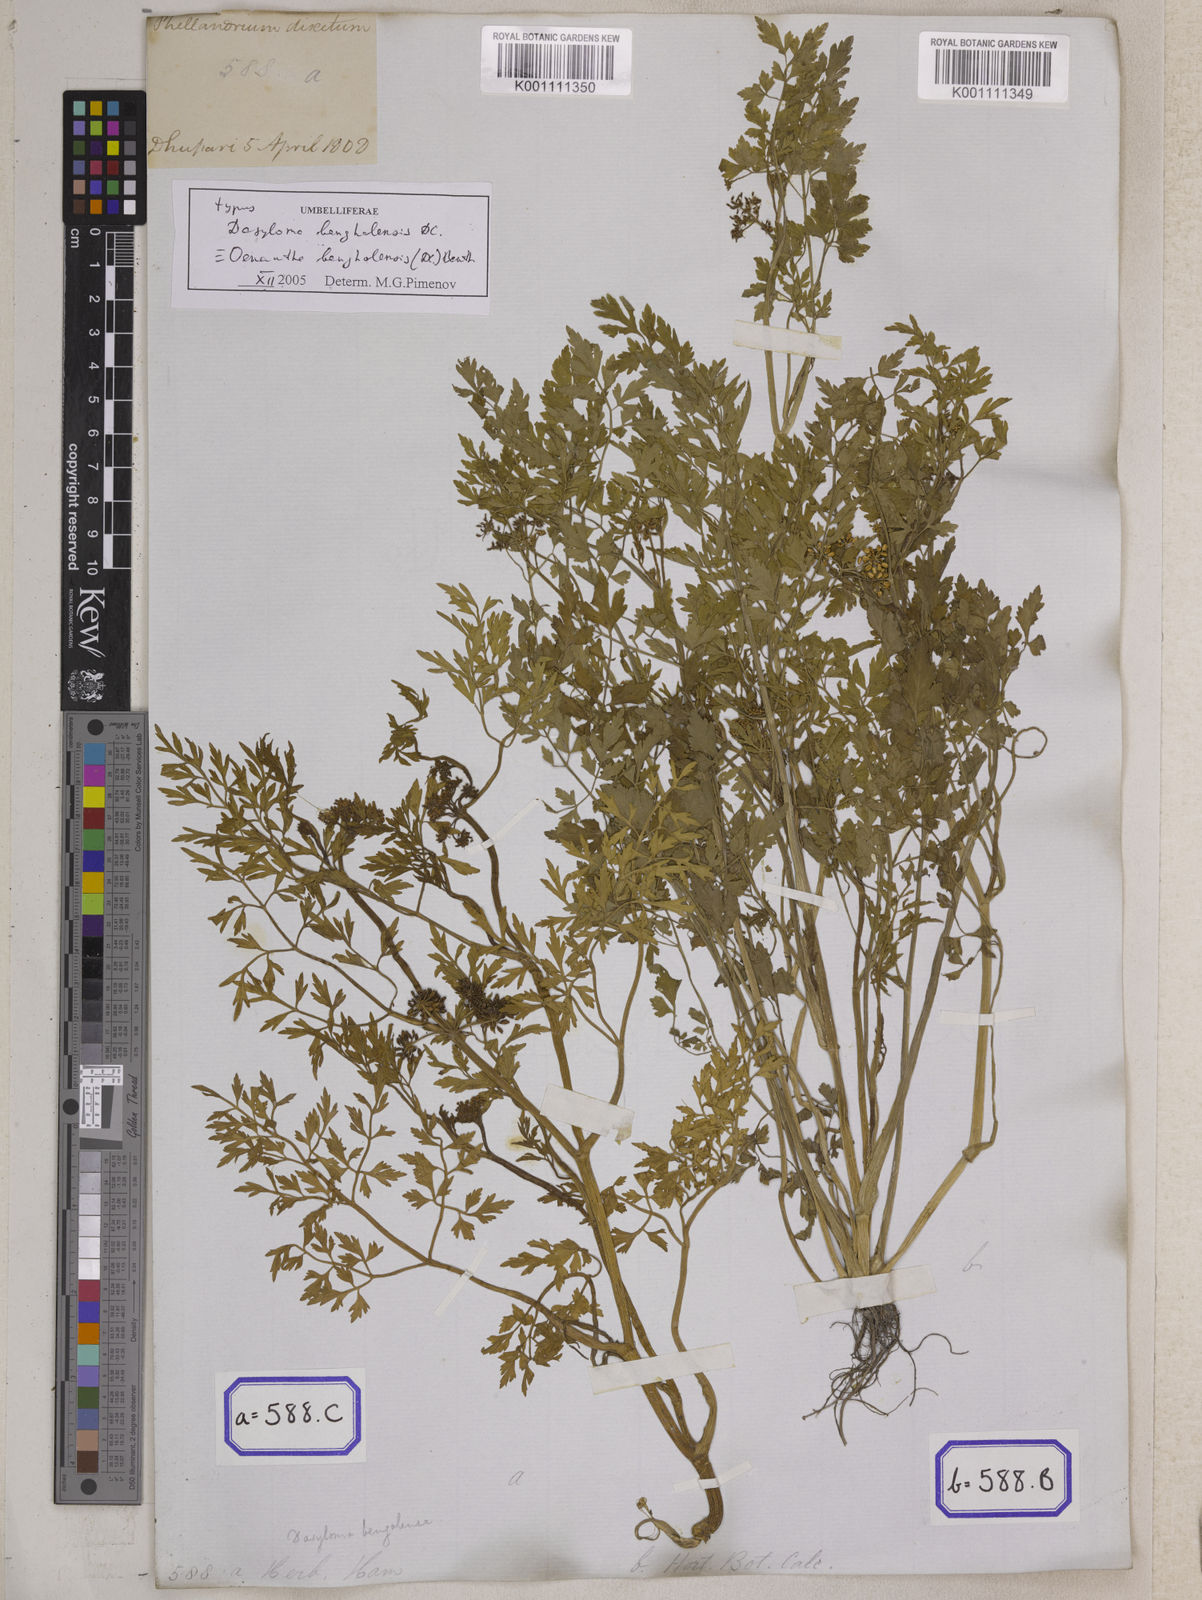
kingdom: Plantae
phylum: Tracheophyta
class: Magnoliopsida
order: Apiales
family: Apiaceae
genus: Bifora
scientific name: Bifora
